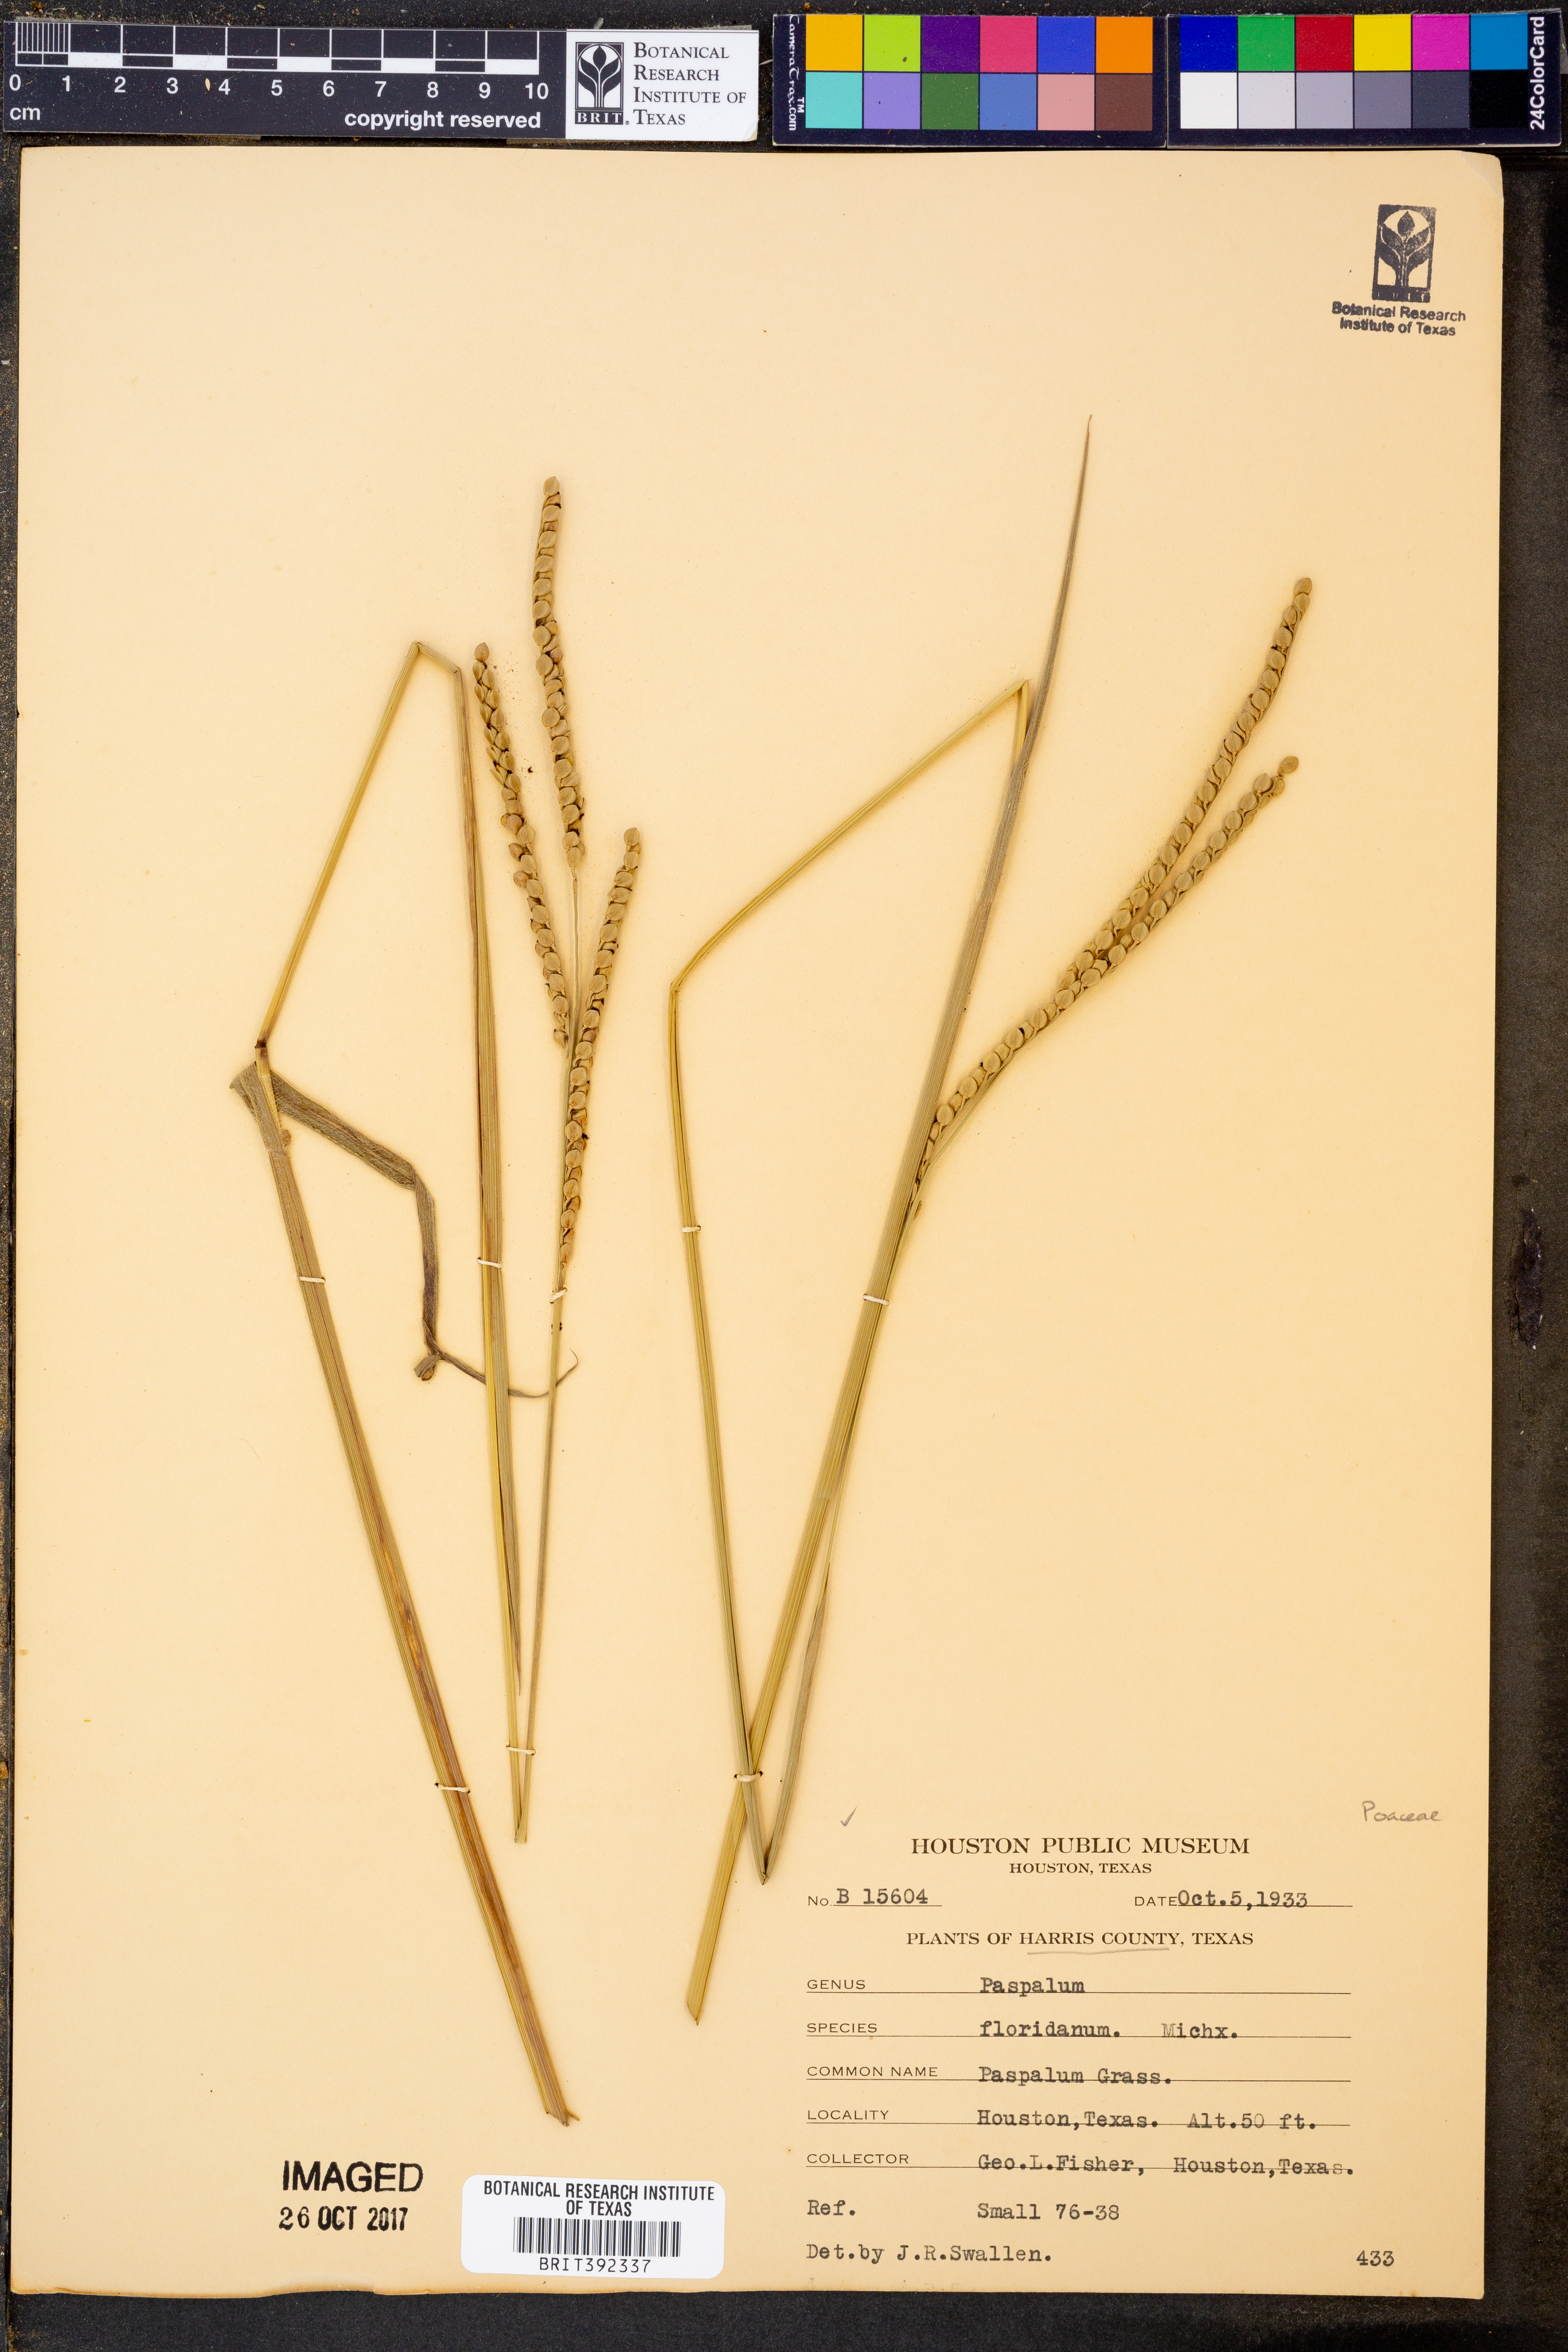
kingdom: Plantae
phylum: Tracheophyta
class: Liliopsida
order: Poales
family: Poaceae
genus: Paspalum
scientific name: Paspalum floridanum
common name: Florida paspalum
